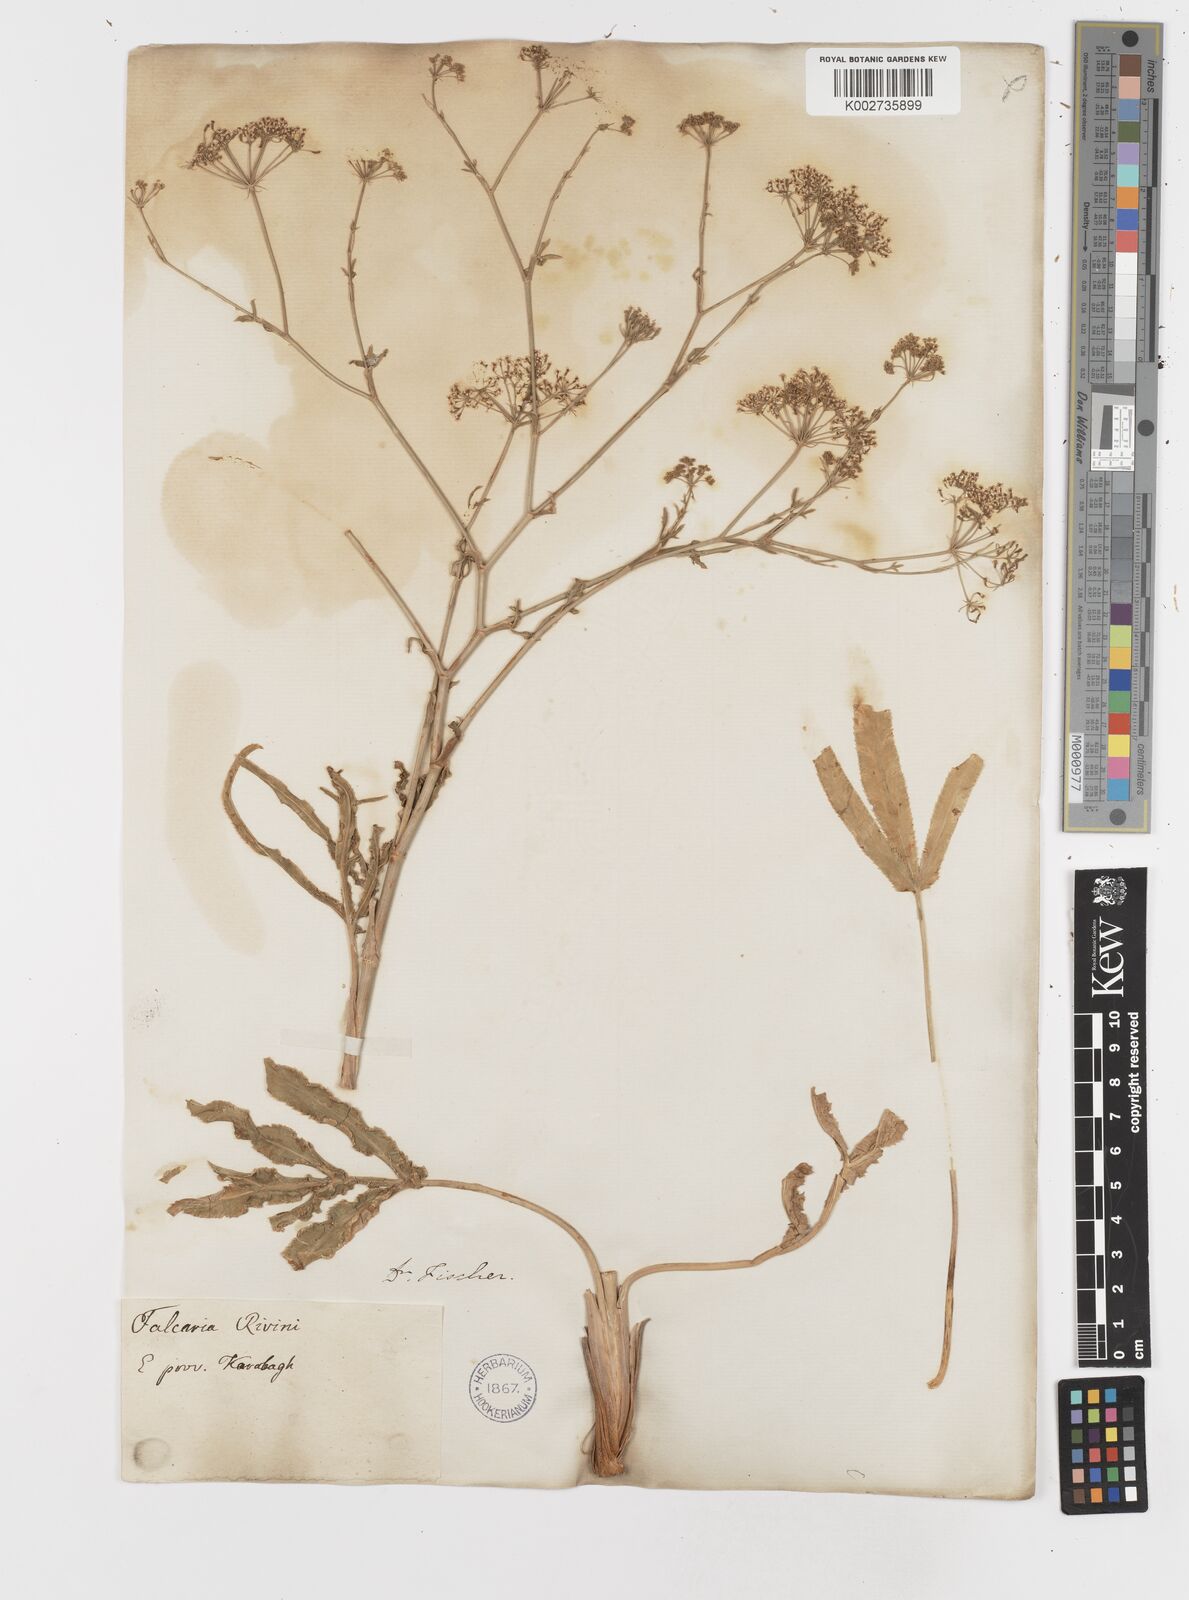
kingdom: Plantae
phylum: Tracheophyta
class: Magnoliopsida
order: Apiales
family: Apiaceae
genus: Falcaria
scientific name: Falcaria vulgaris
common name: Longleaf
